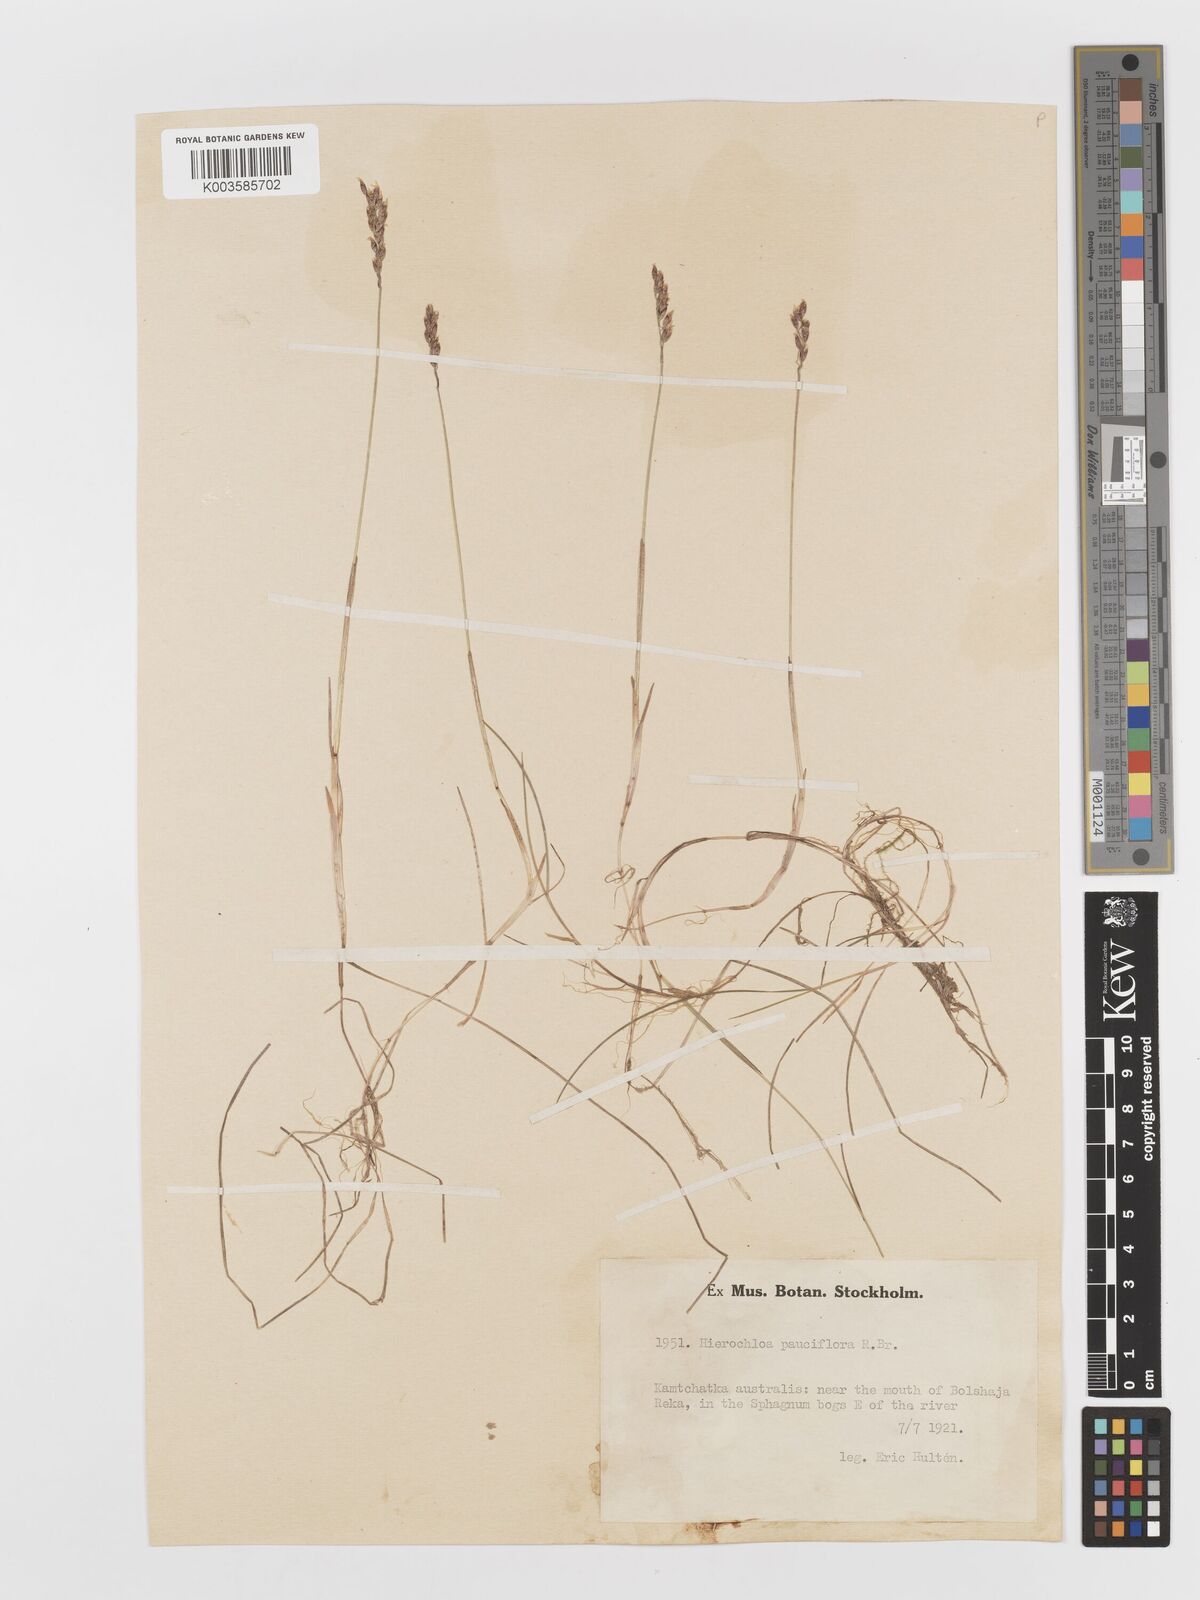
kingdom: Plantae
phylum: Tracheophyta
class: Liliopsida
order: Poales
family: Poaceae
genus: Anthoxanthum
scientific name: Anthoxanthum arcticum
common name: Arctic sweetgrass
